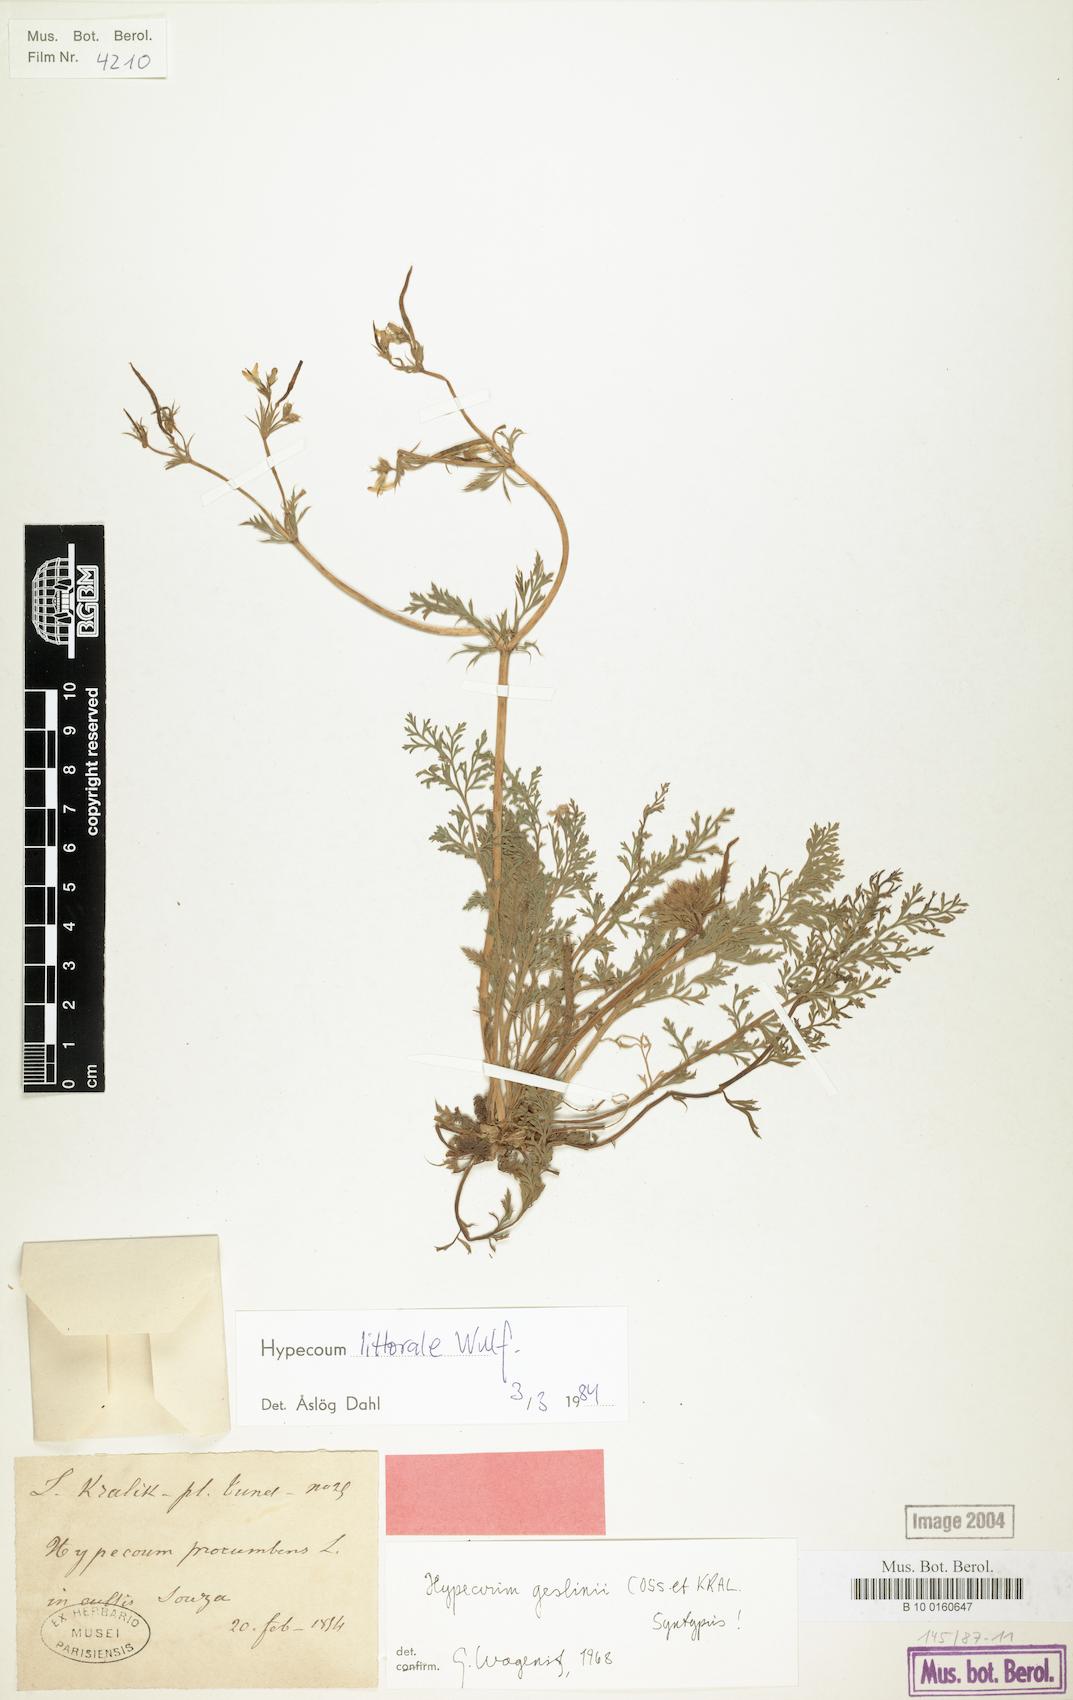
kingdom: Plantae
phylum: Tracheophyta
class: Magnoliopsida
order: Ranunculales
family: Papaveraceae
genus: Hypecoum
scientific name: Hypecoum littorale
